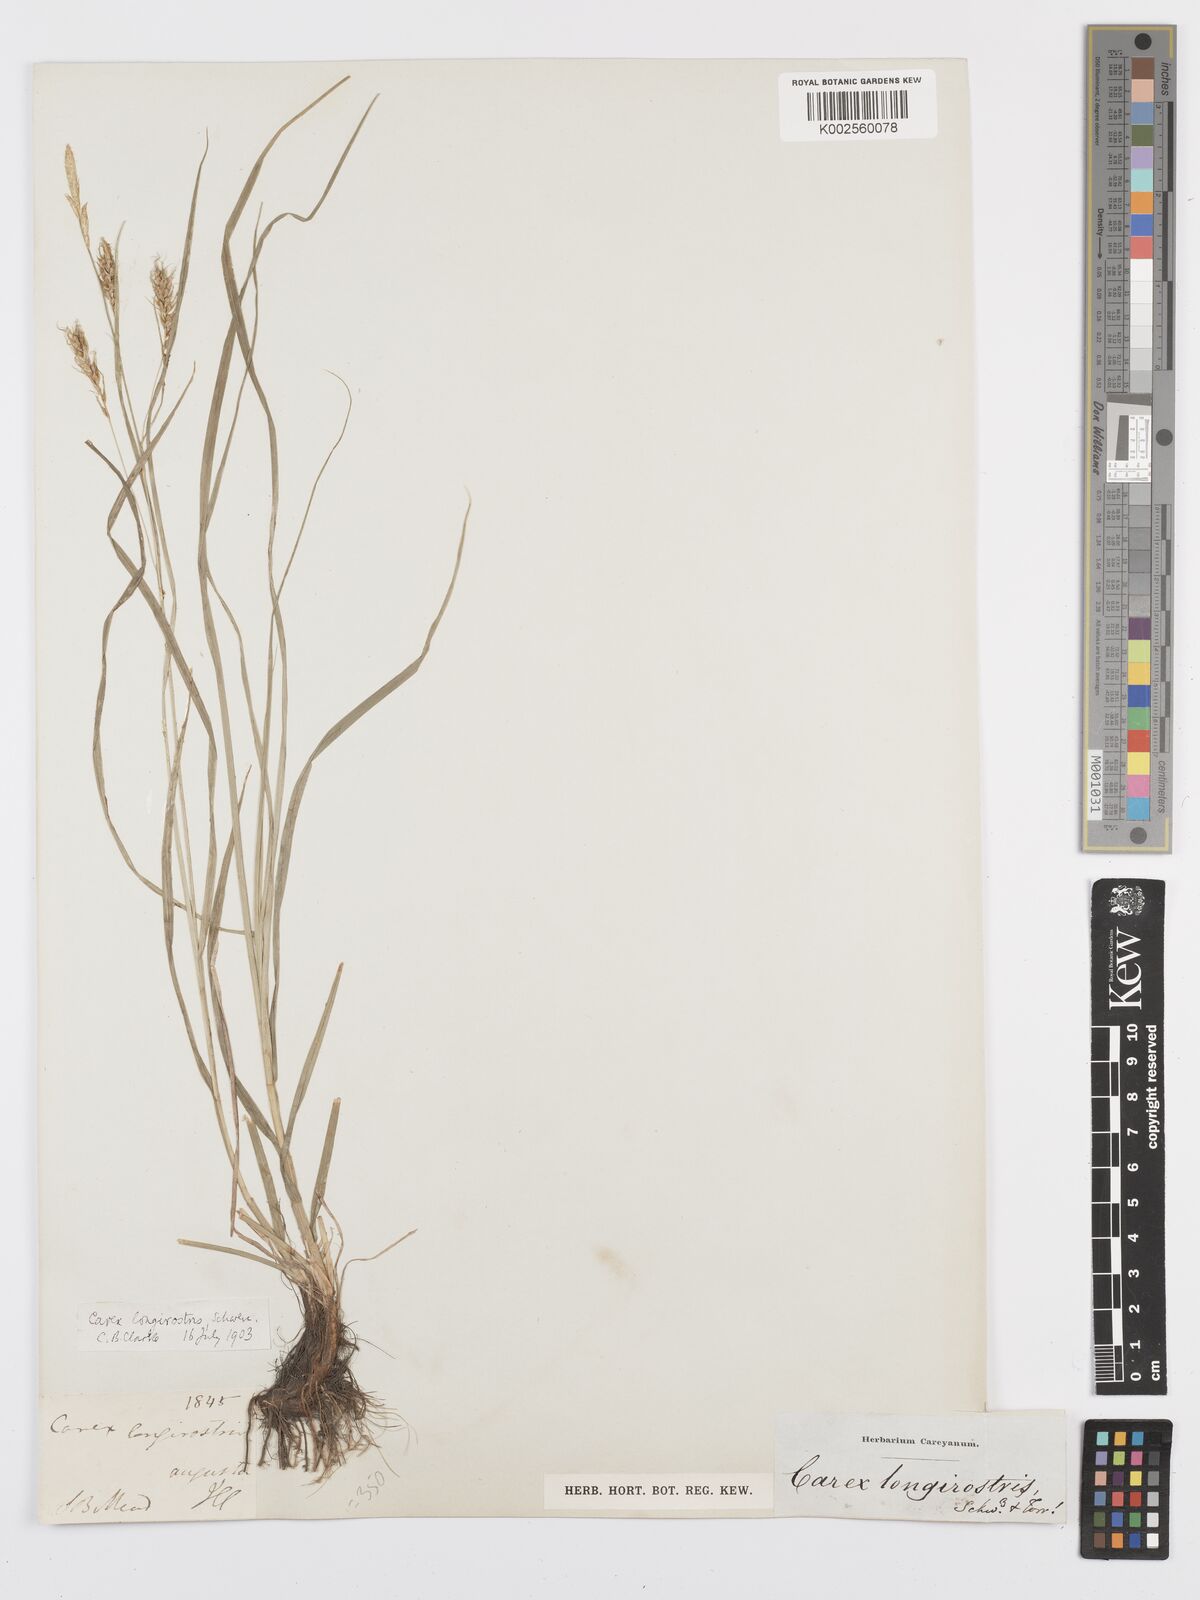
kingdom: Plantae
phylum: Tracheophyta
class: Liliopsida
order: Poales
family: Cyperaceae
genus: Carex
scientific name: Carex sprengelii
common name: Long-beaked sedge
